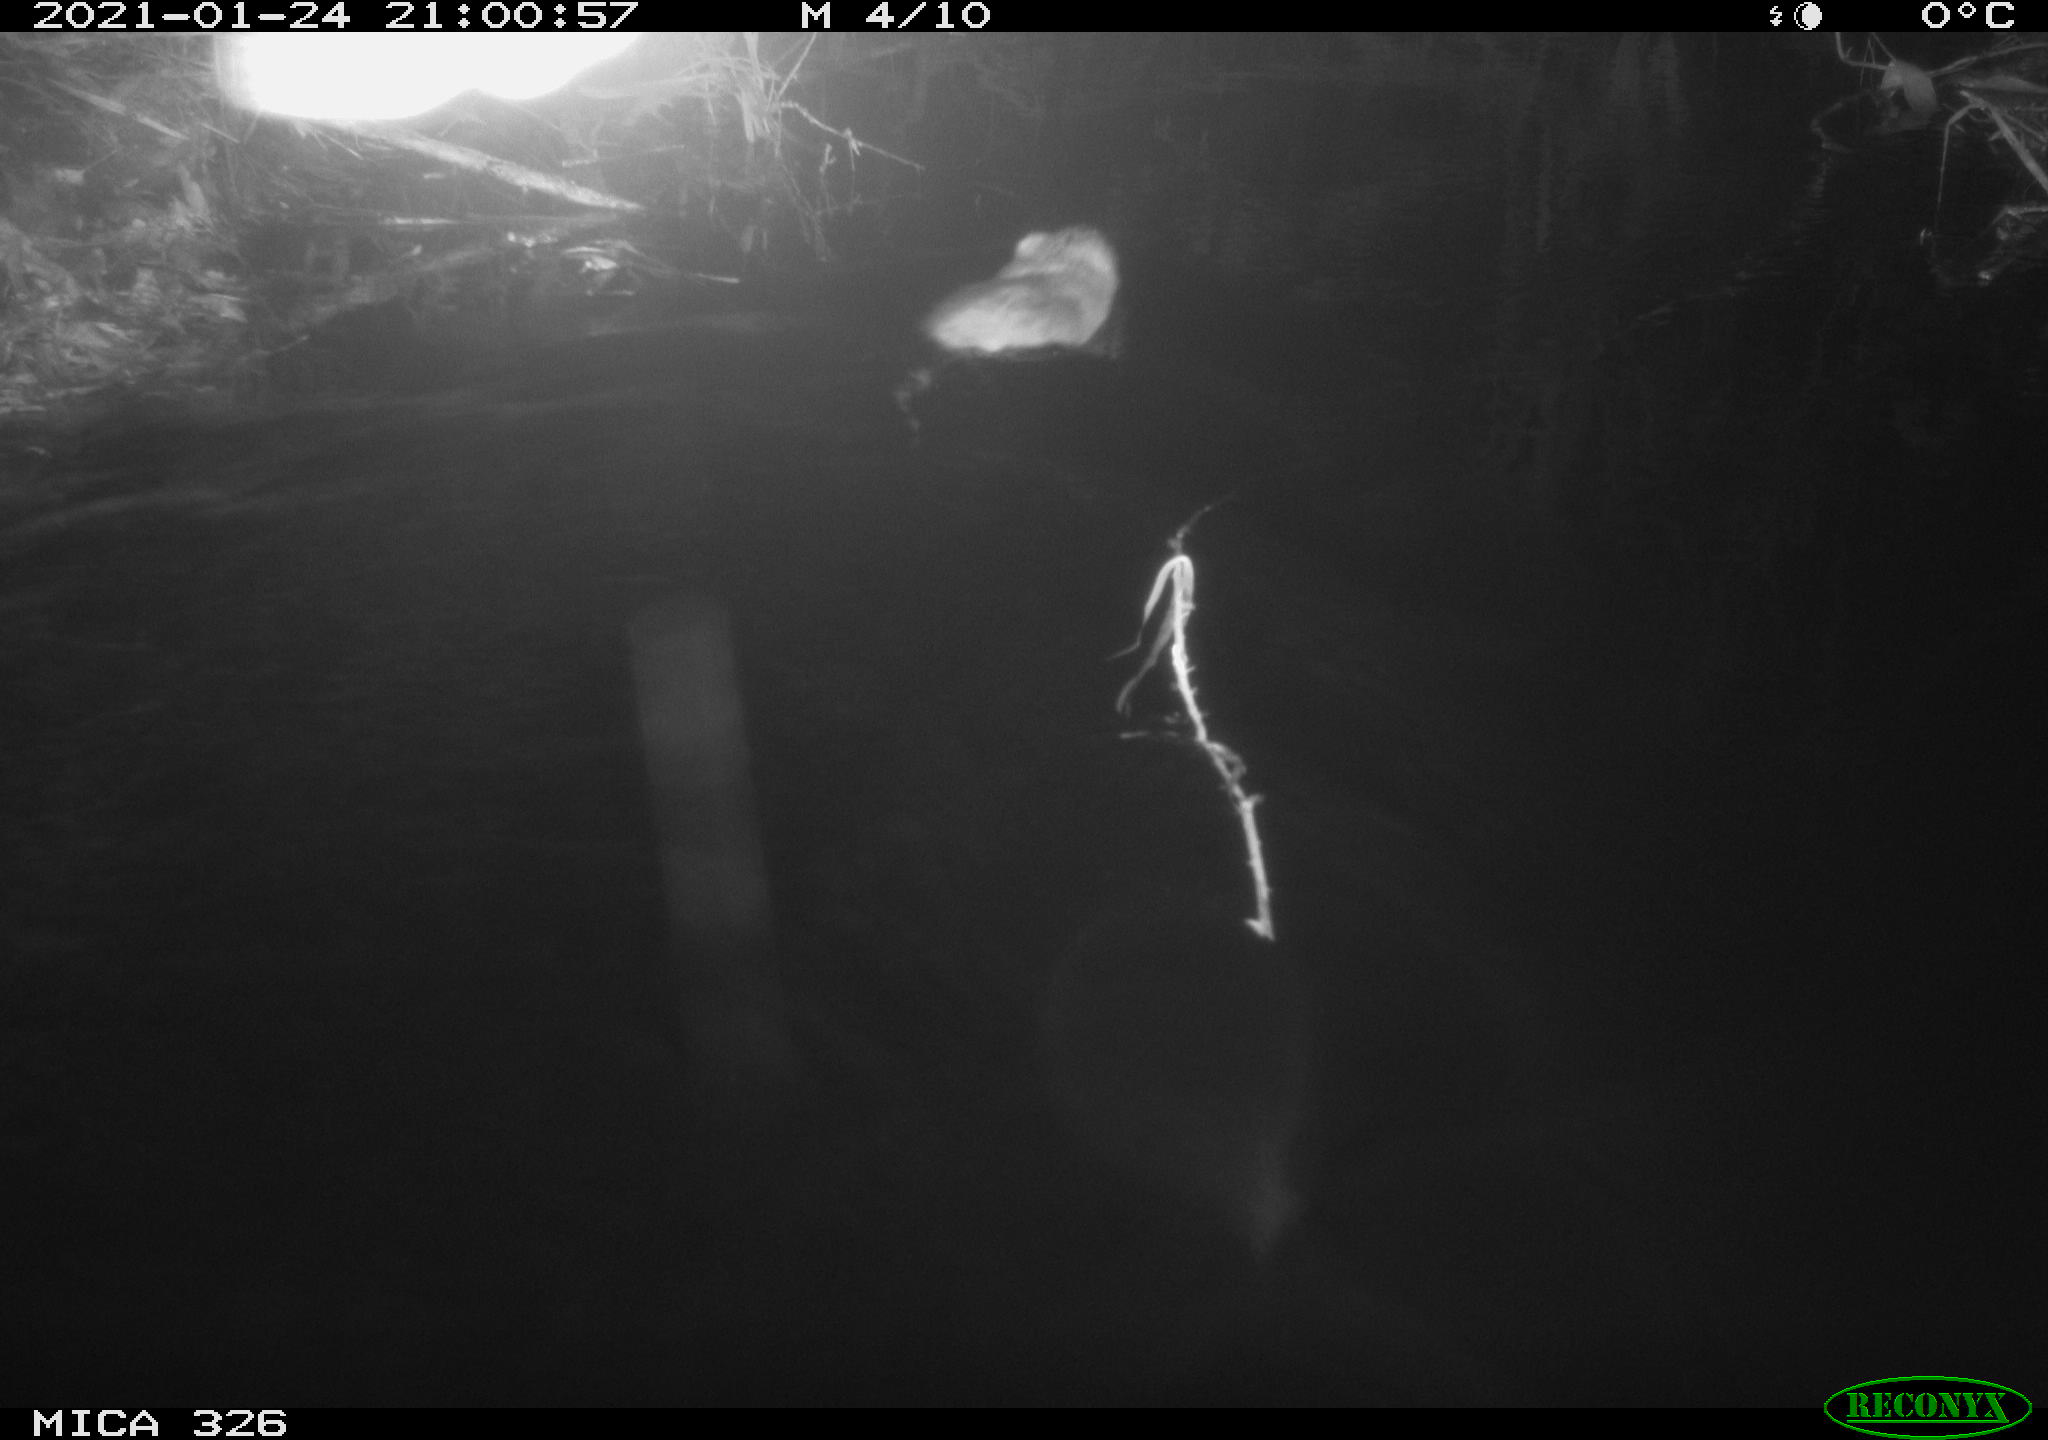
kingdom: Animalia
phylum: Chordata
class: Mammalia
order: Rodentia
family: Cricetidae
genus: Ondatra
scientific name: Ondatra zibethicus
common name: Muskrat
